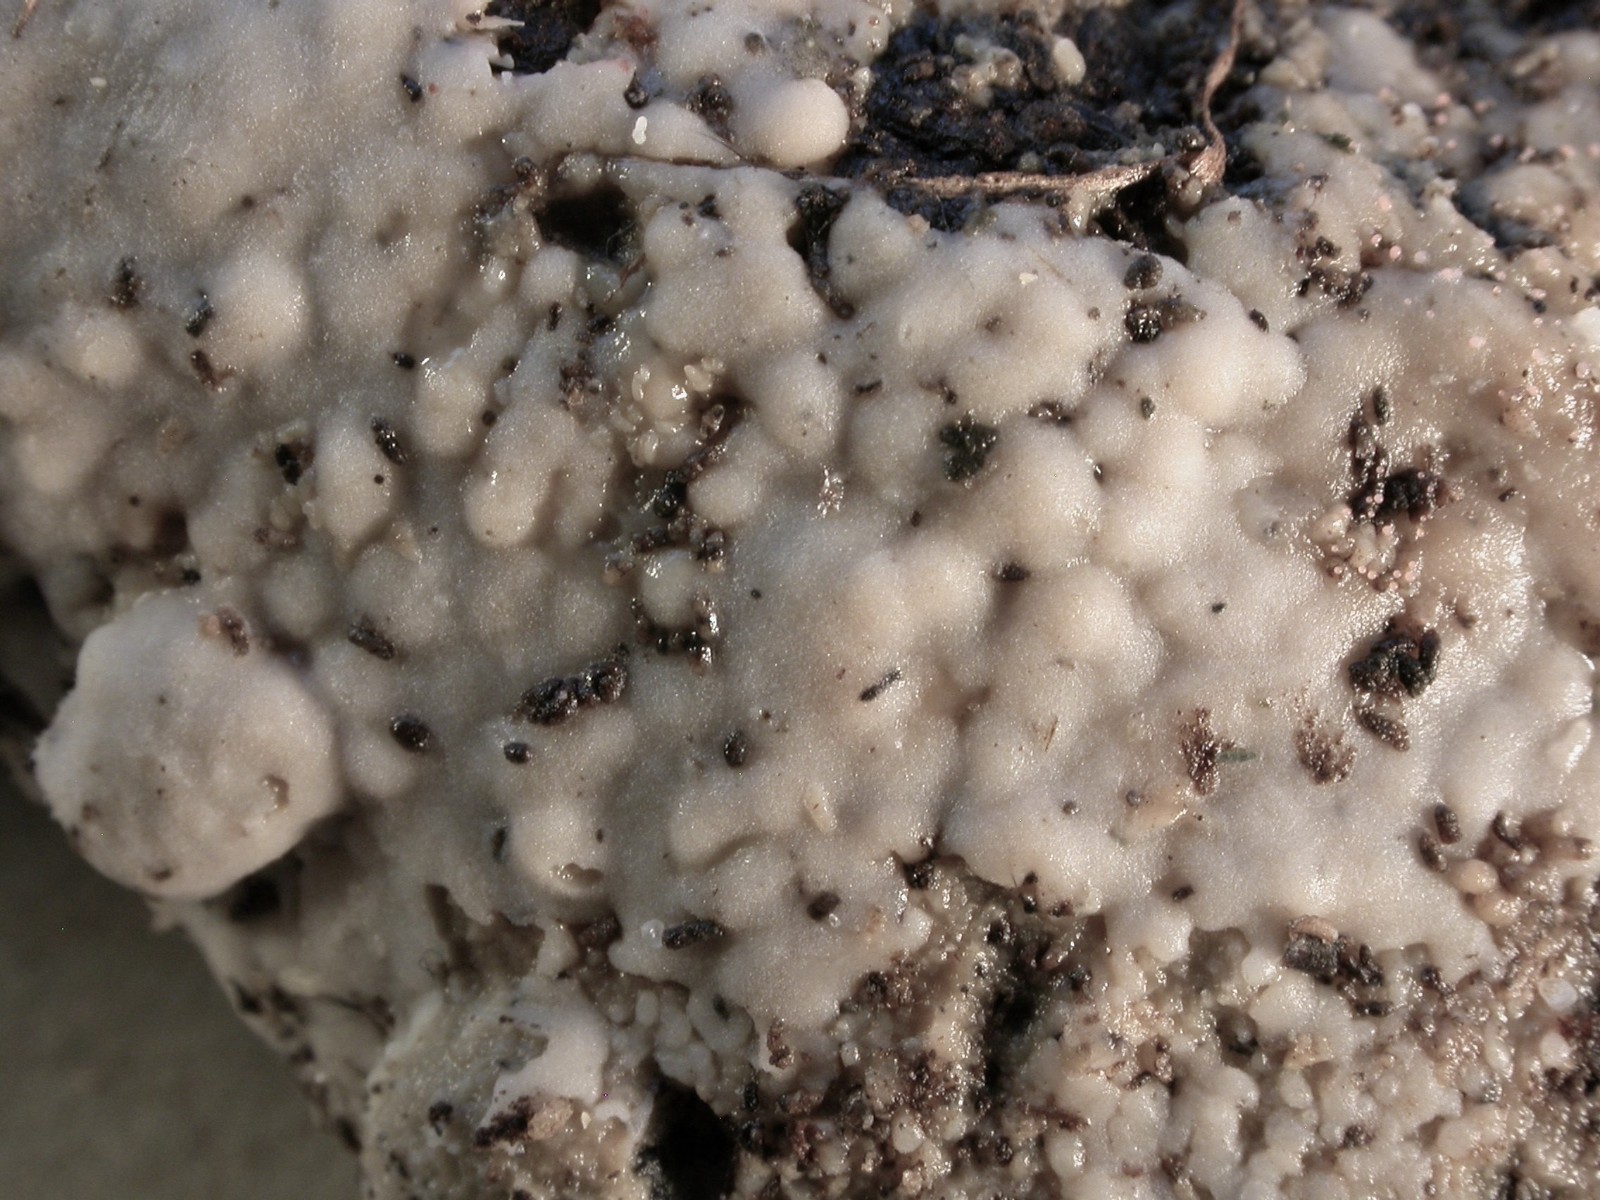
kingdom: Fungi
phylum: Basidiomycota
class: Agaricomycetes
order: Sebacinales
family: Sebacinaceae
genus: Sebacina
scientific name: Sebacina
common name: bævretalg
